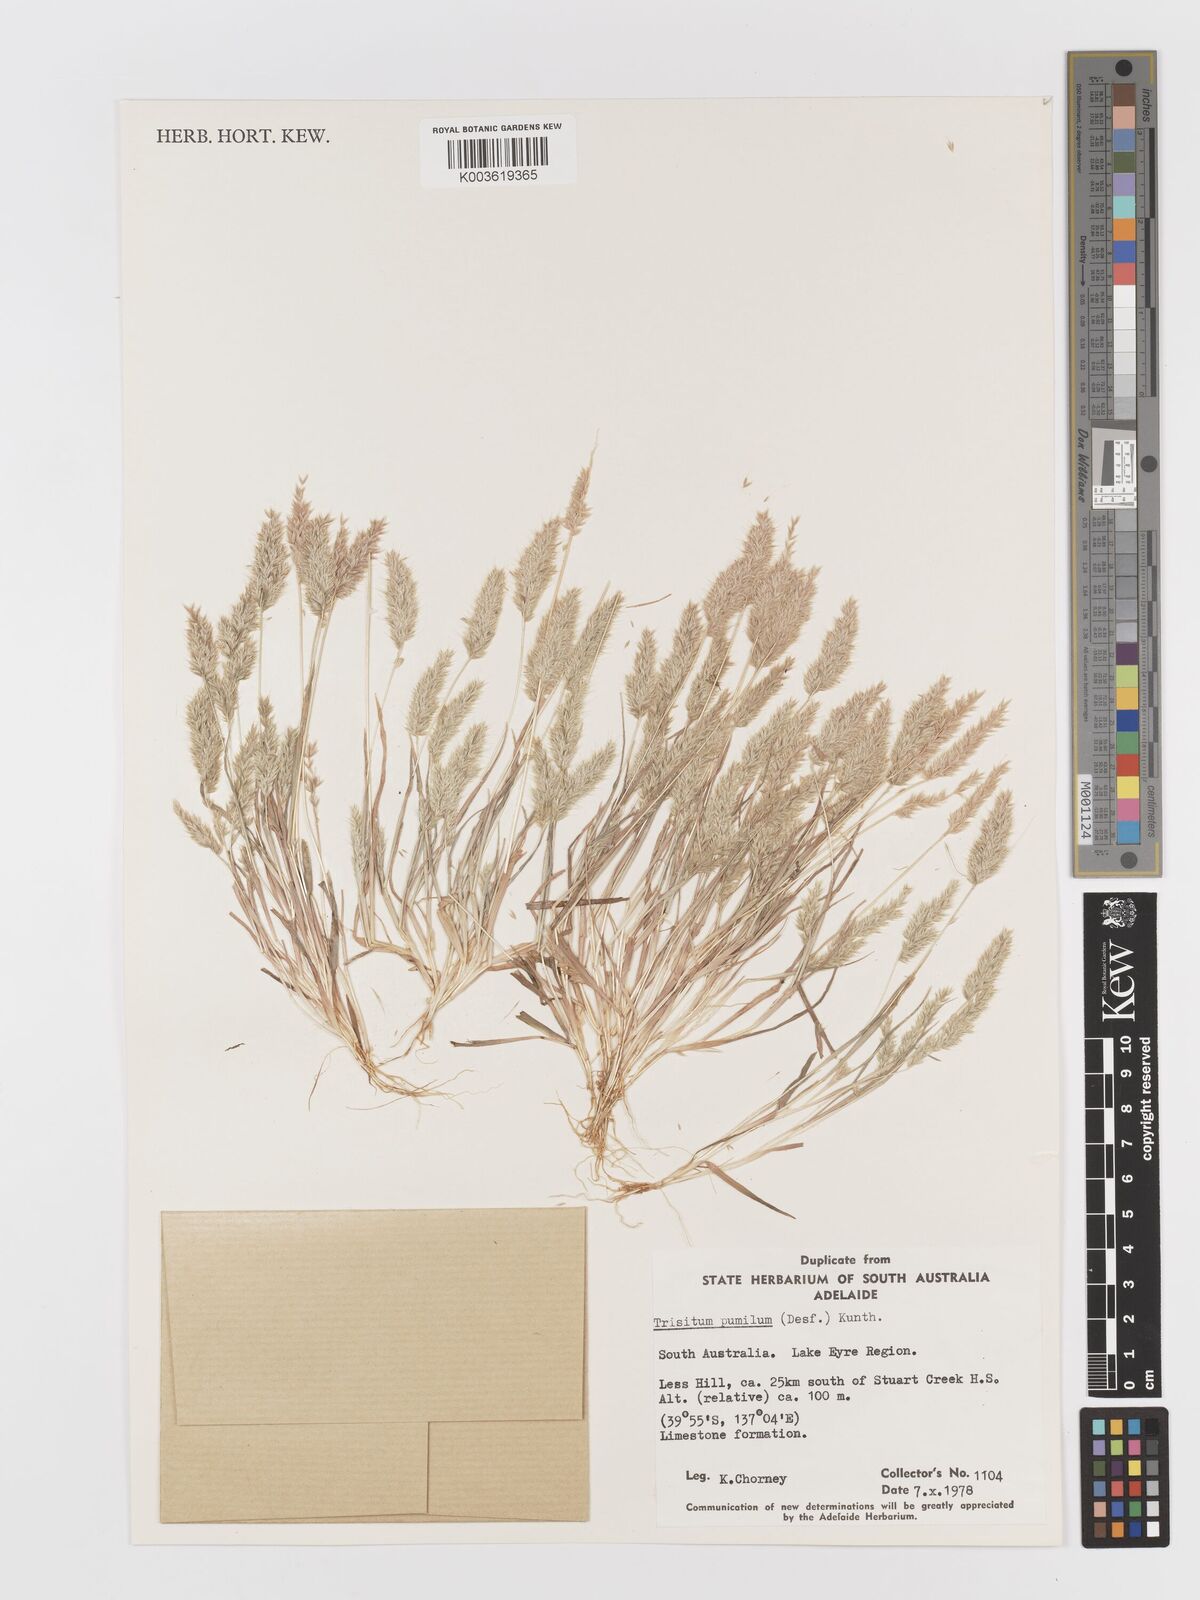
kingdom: Plantae
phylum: Tracheophyta
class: Liliopsida
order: Poales
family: Poaceae
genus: Rostraria
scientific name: Rostraria pumila
